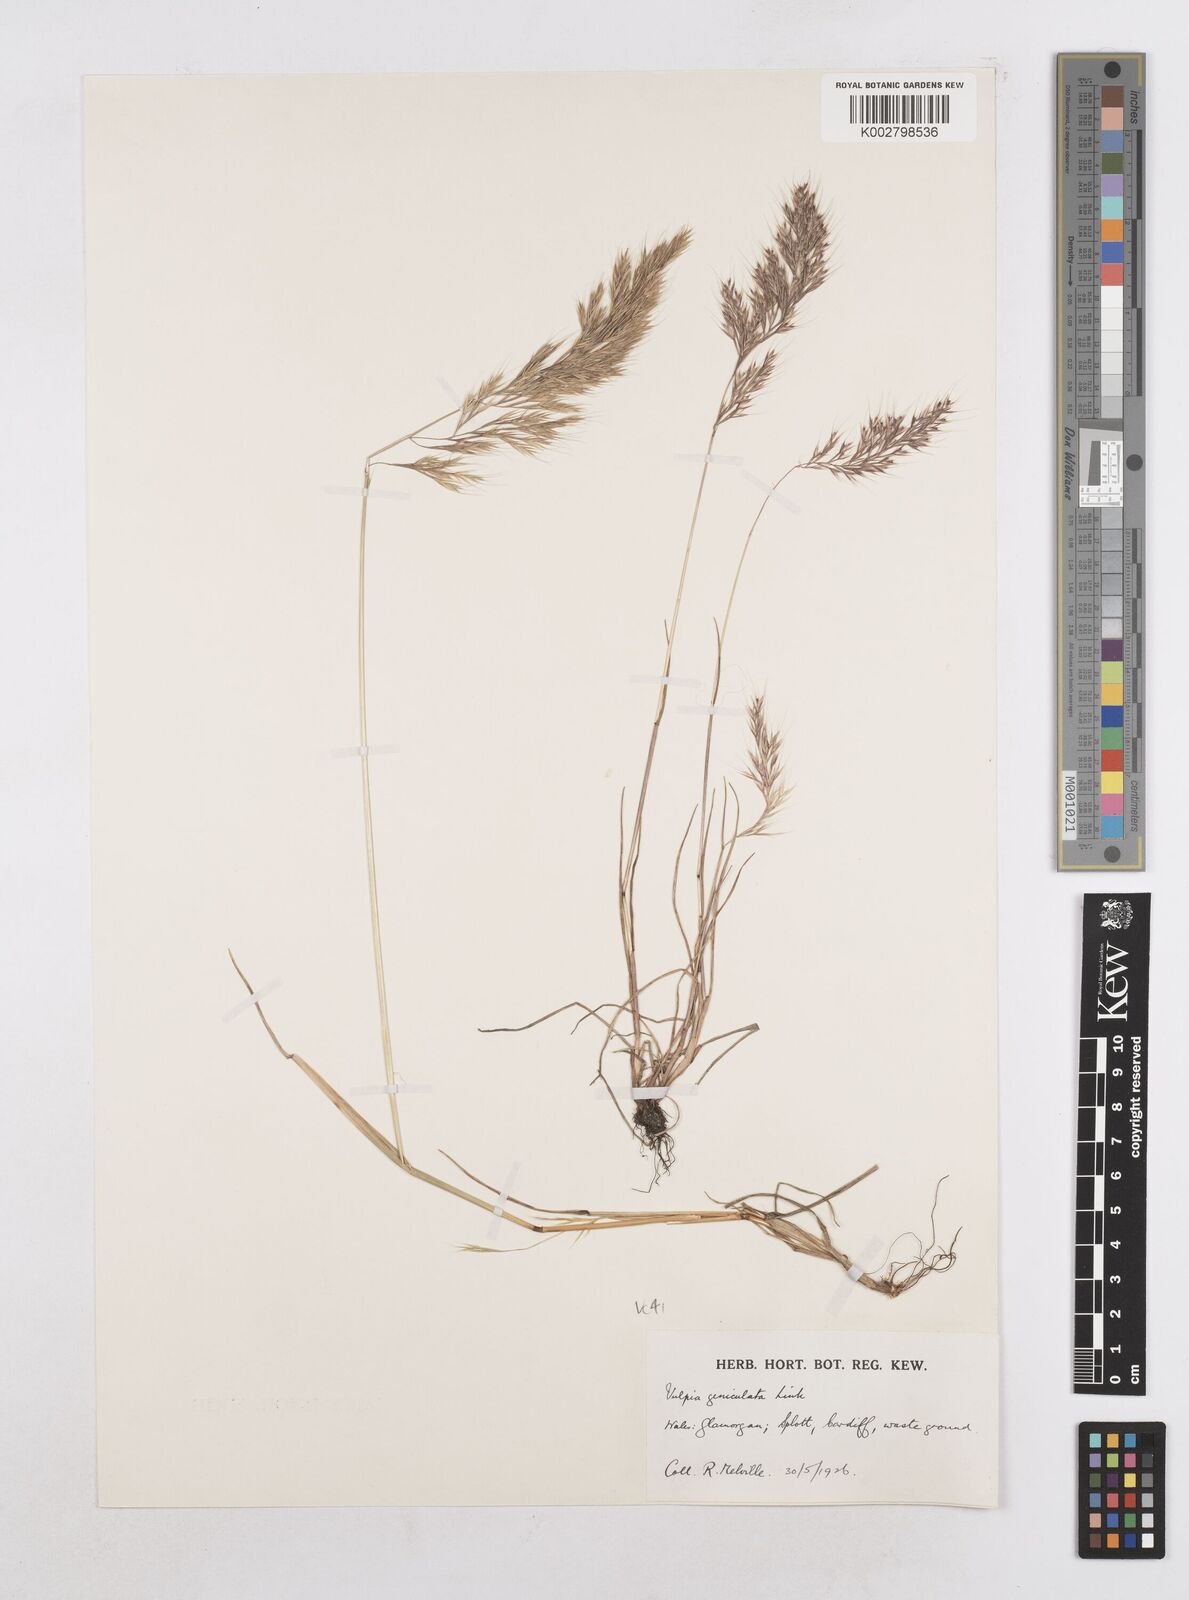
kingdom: Plantae
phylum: Tracheophyta
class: Liliopsida
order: Poales
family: Poaceae
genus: Festuca
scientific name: Festuca geniculata
